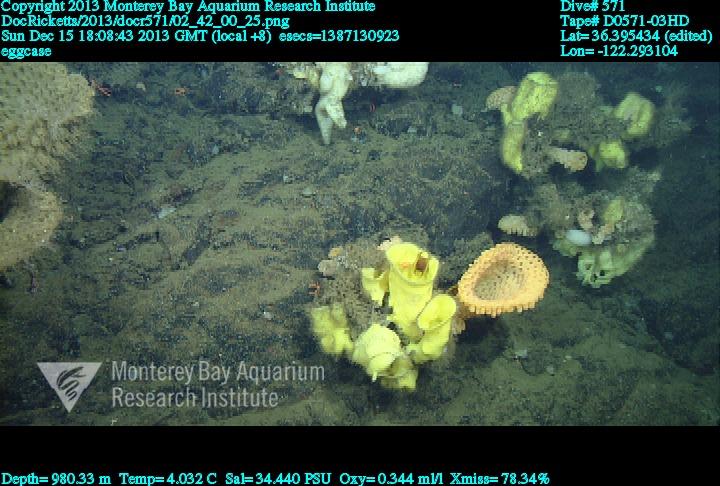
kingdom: Animalia
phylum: Porifera
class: Hexactinellida
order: Lyssacinosida
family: Rossellidae
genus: Staurocalyptus
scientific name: Staurocalyptus
